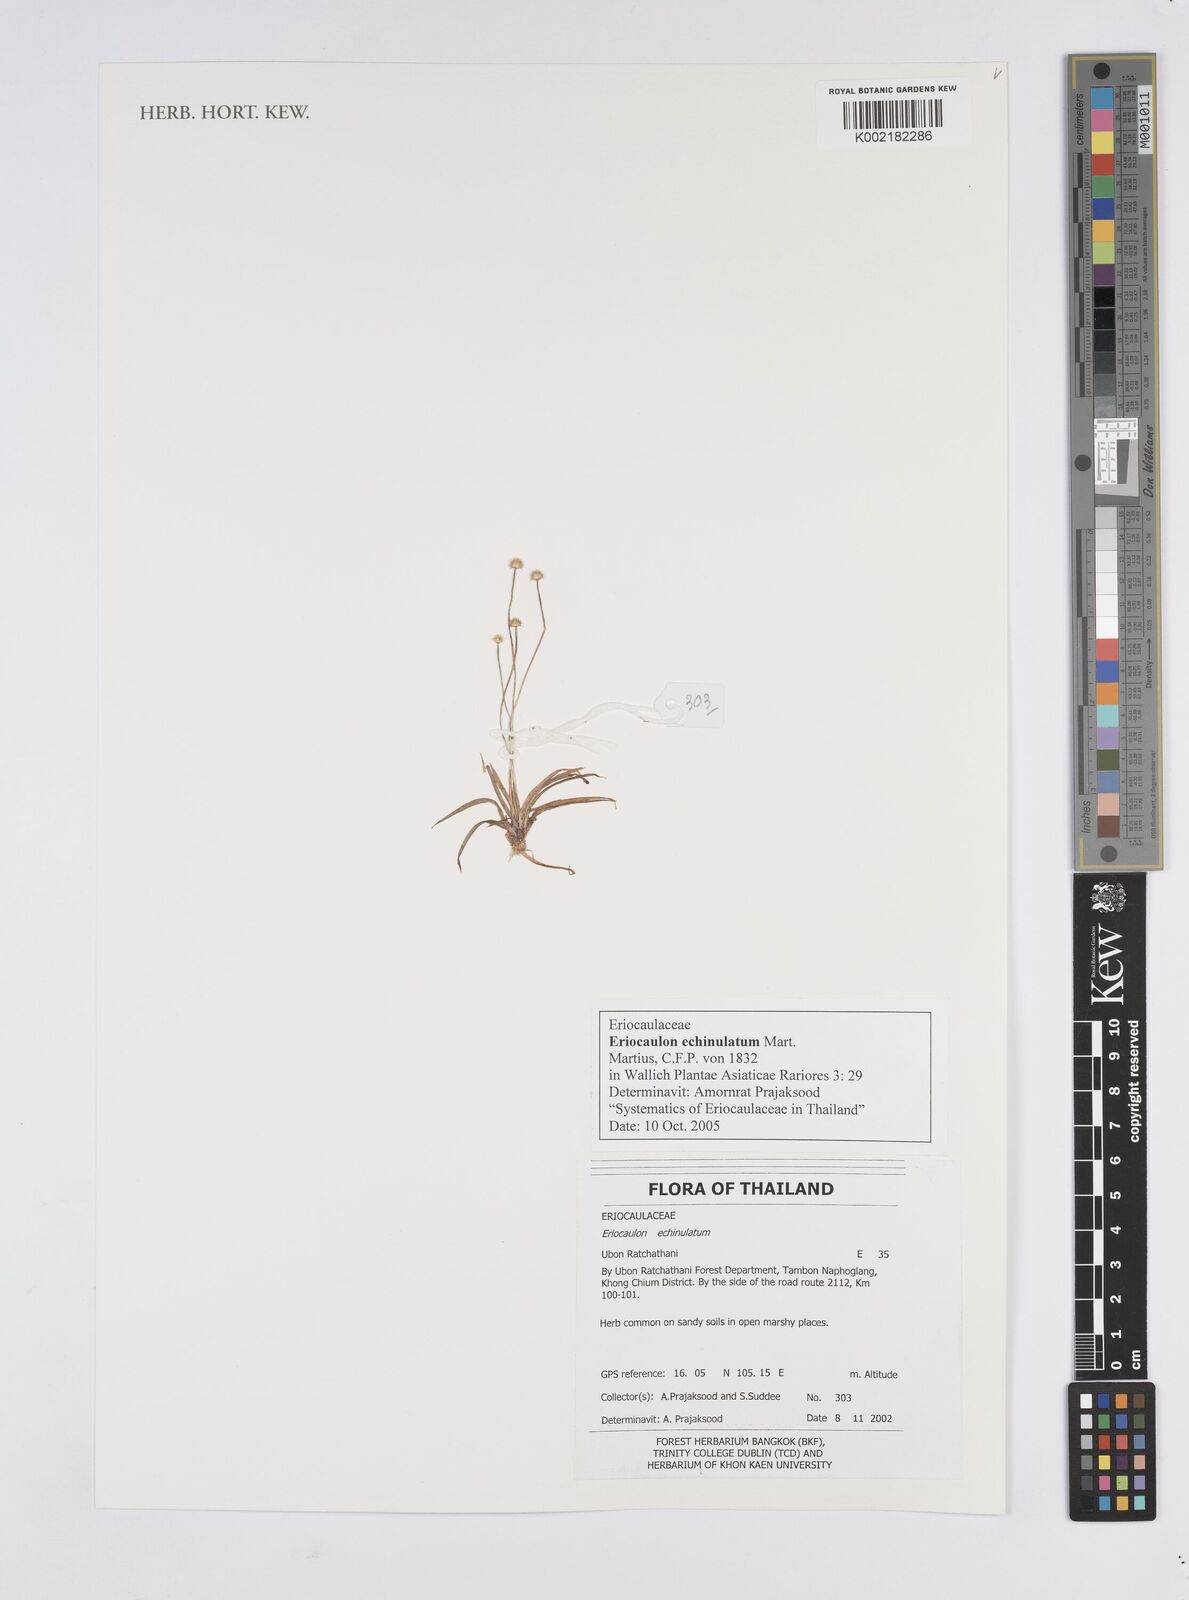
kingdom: Plantae
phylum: Tracheophyta
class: Liliopsida
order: Poales
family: Eriocaulaceae
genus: Eriocaulon
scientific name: Eriocaulon echinulatum
